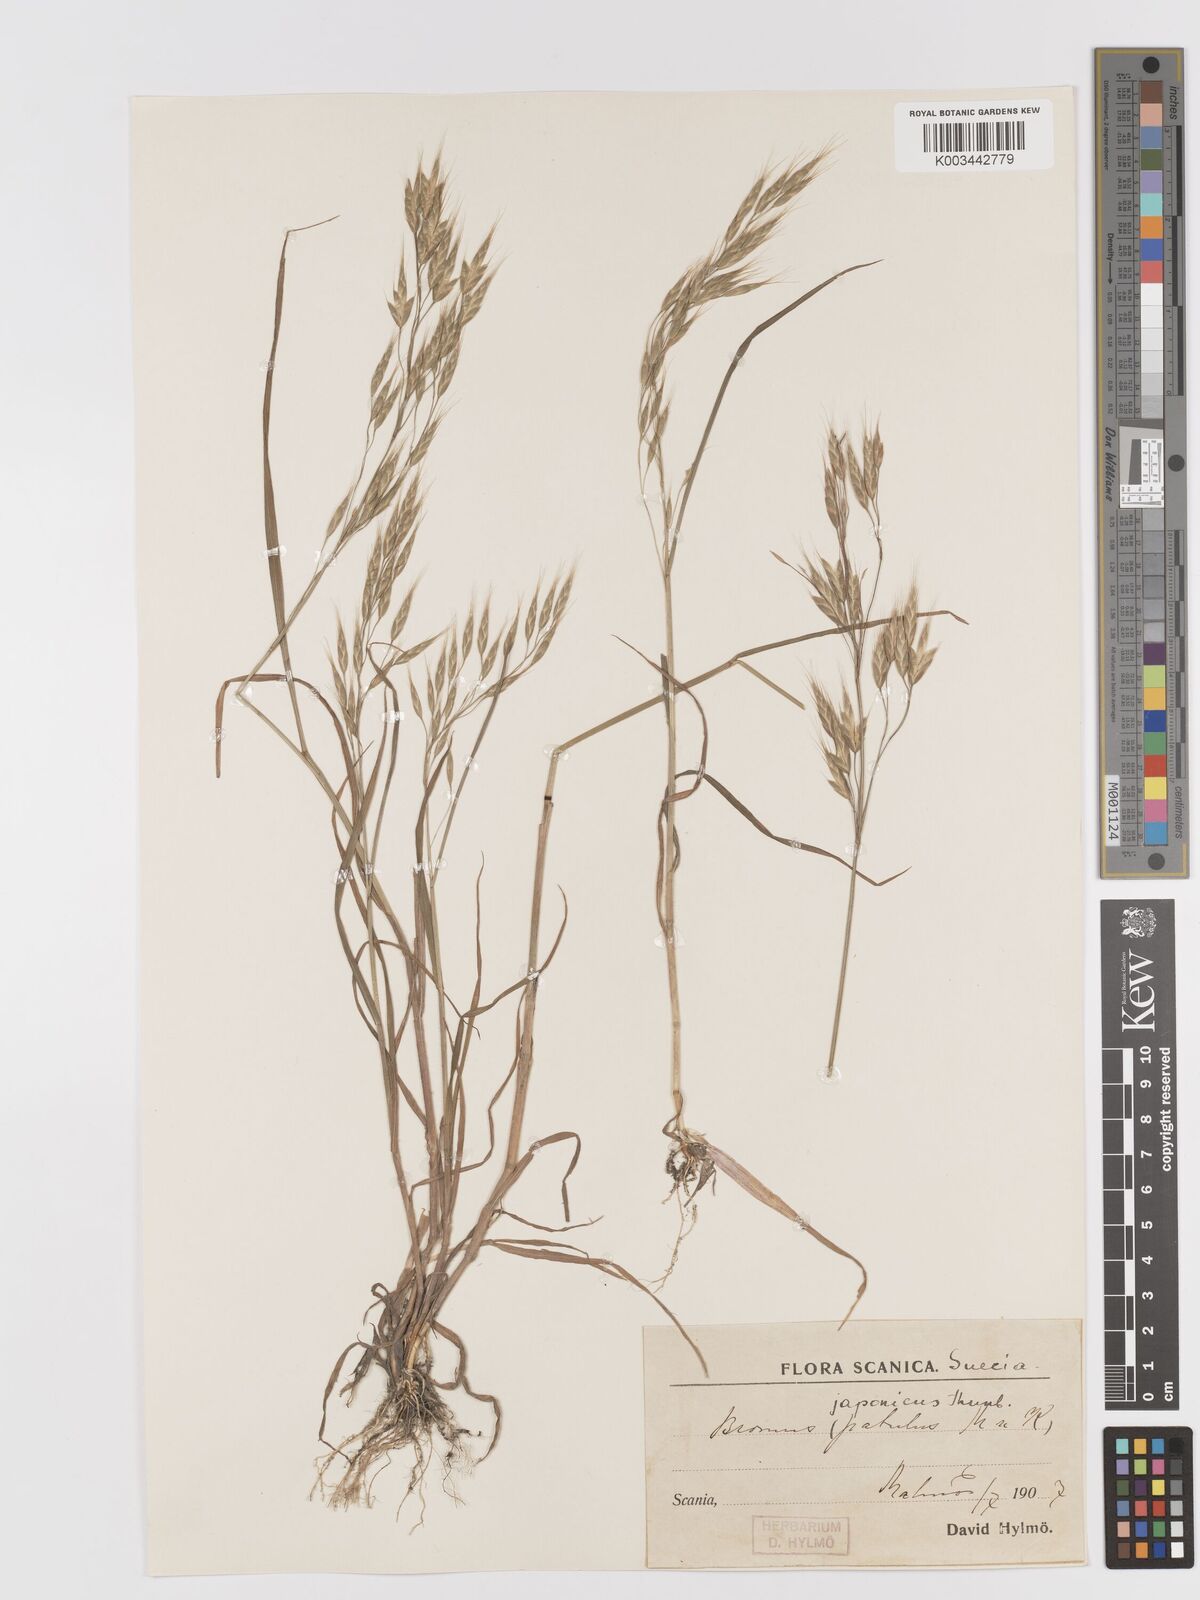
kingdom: Plantae
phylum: Tracheophyta
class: Liliopsida
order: Poales
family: Poaceae
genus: Bromus
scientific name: Bromus japonicus
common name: Japanese brome
